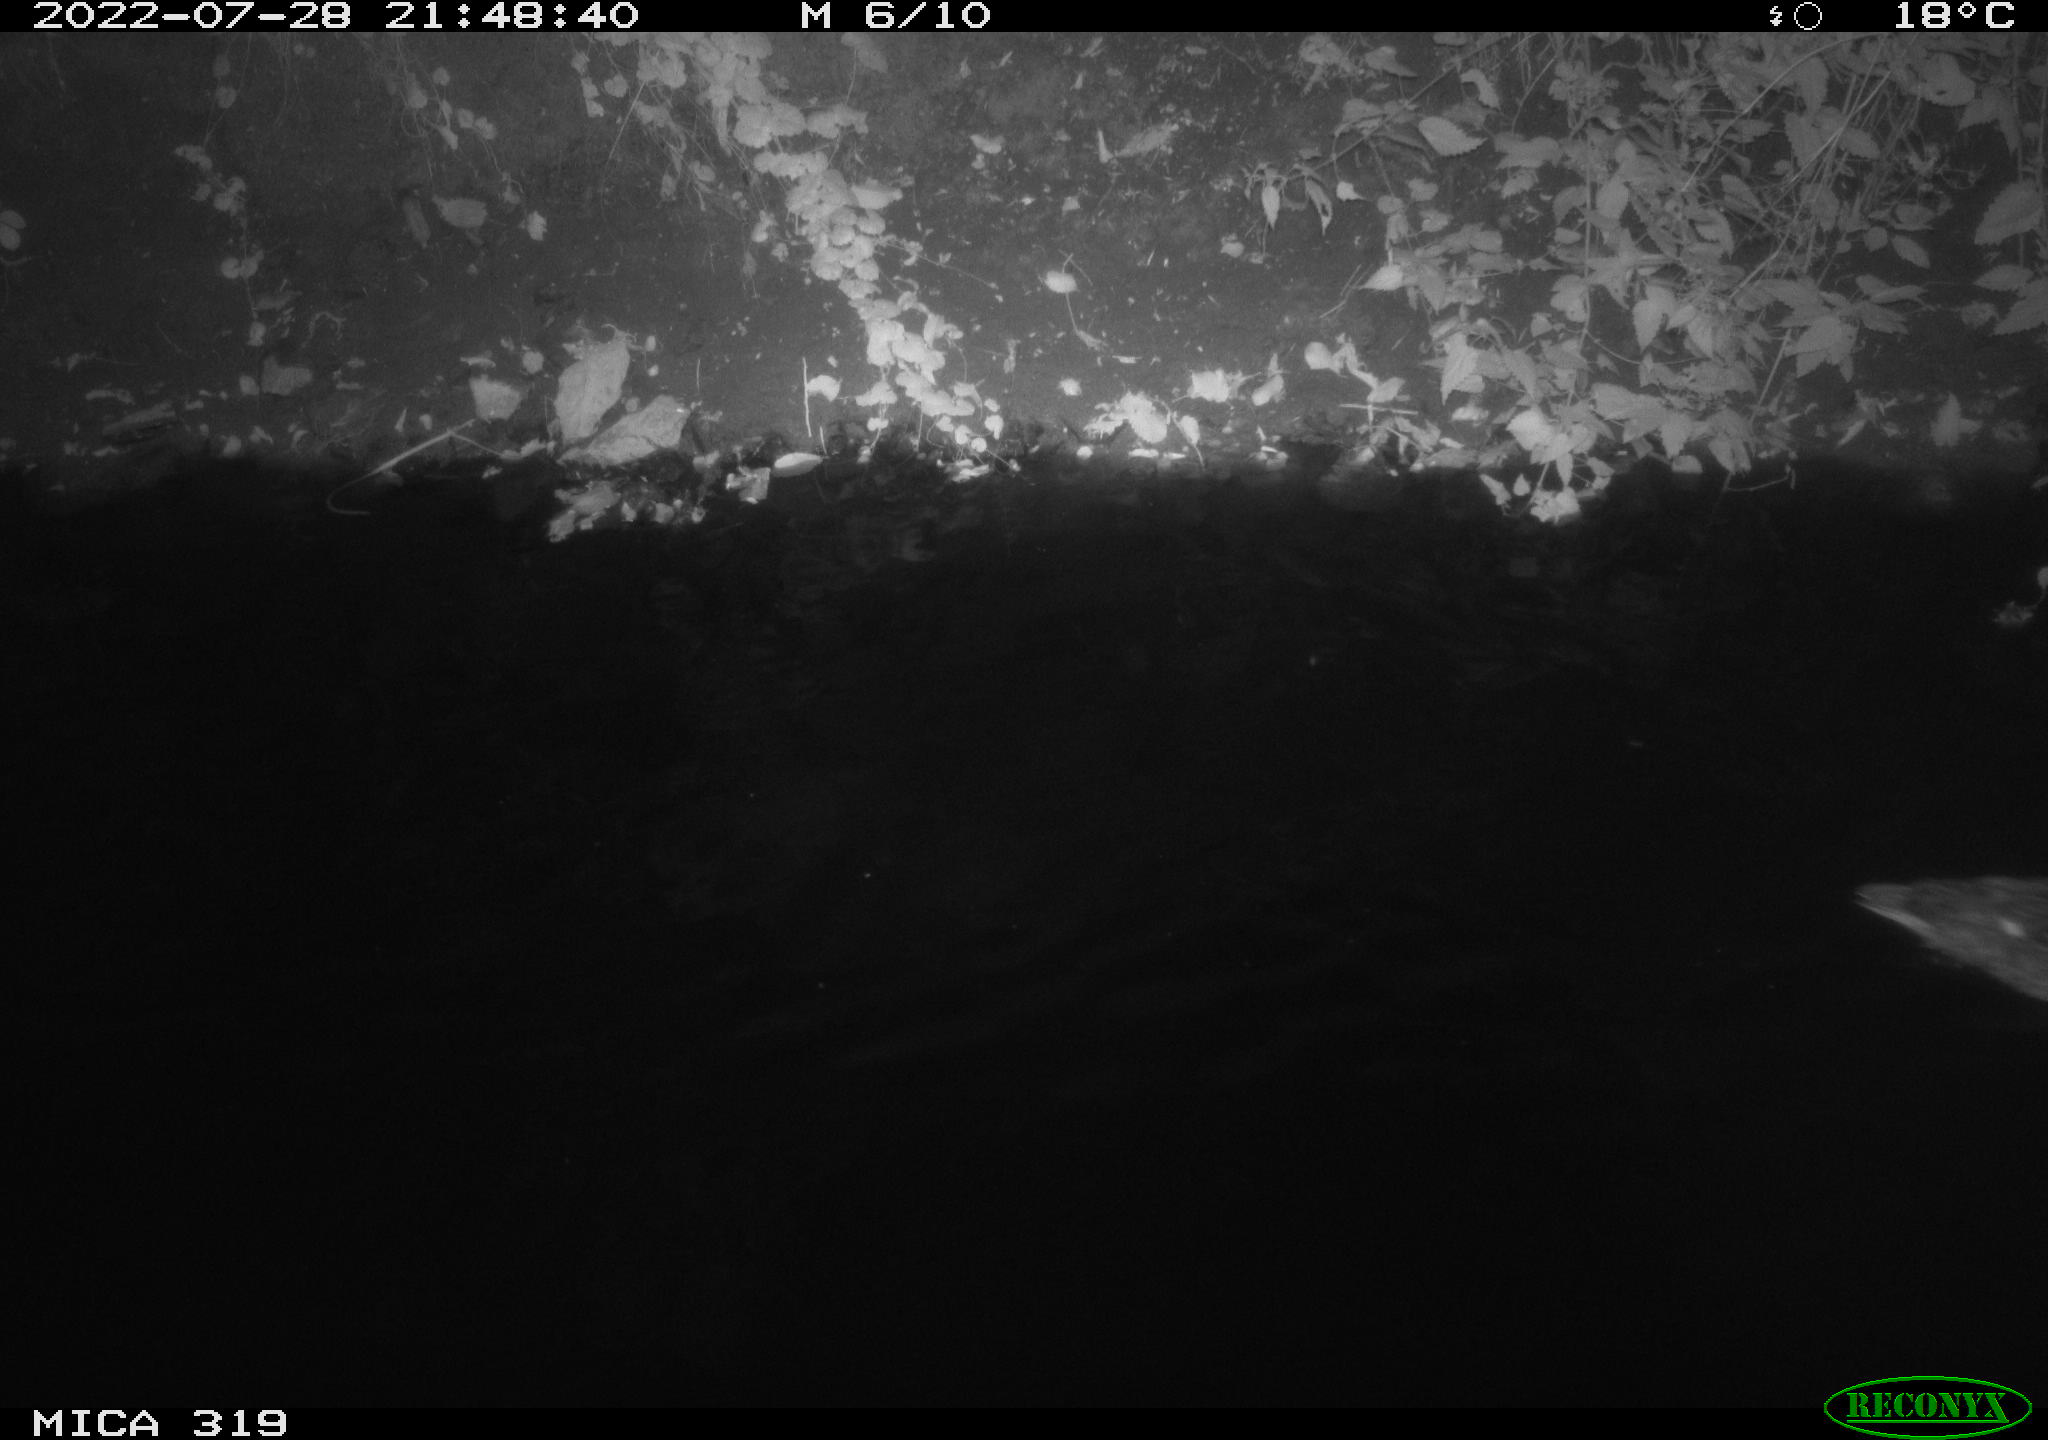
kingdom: Animalia
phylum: Chordata
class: Aves
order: Anseriformes
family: Anatidae
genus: Anas
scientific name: Anas
